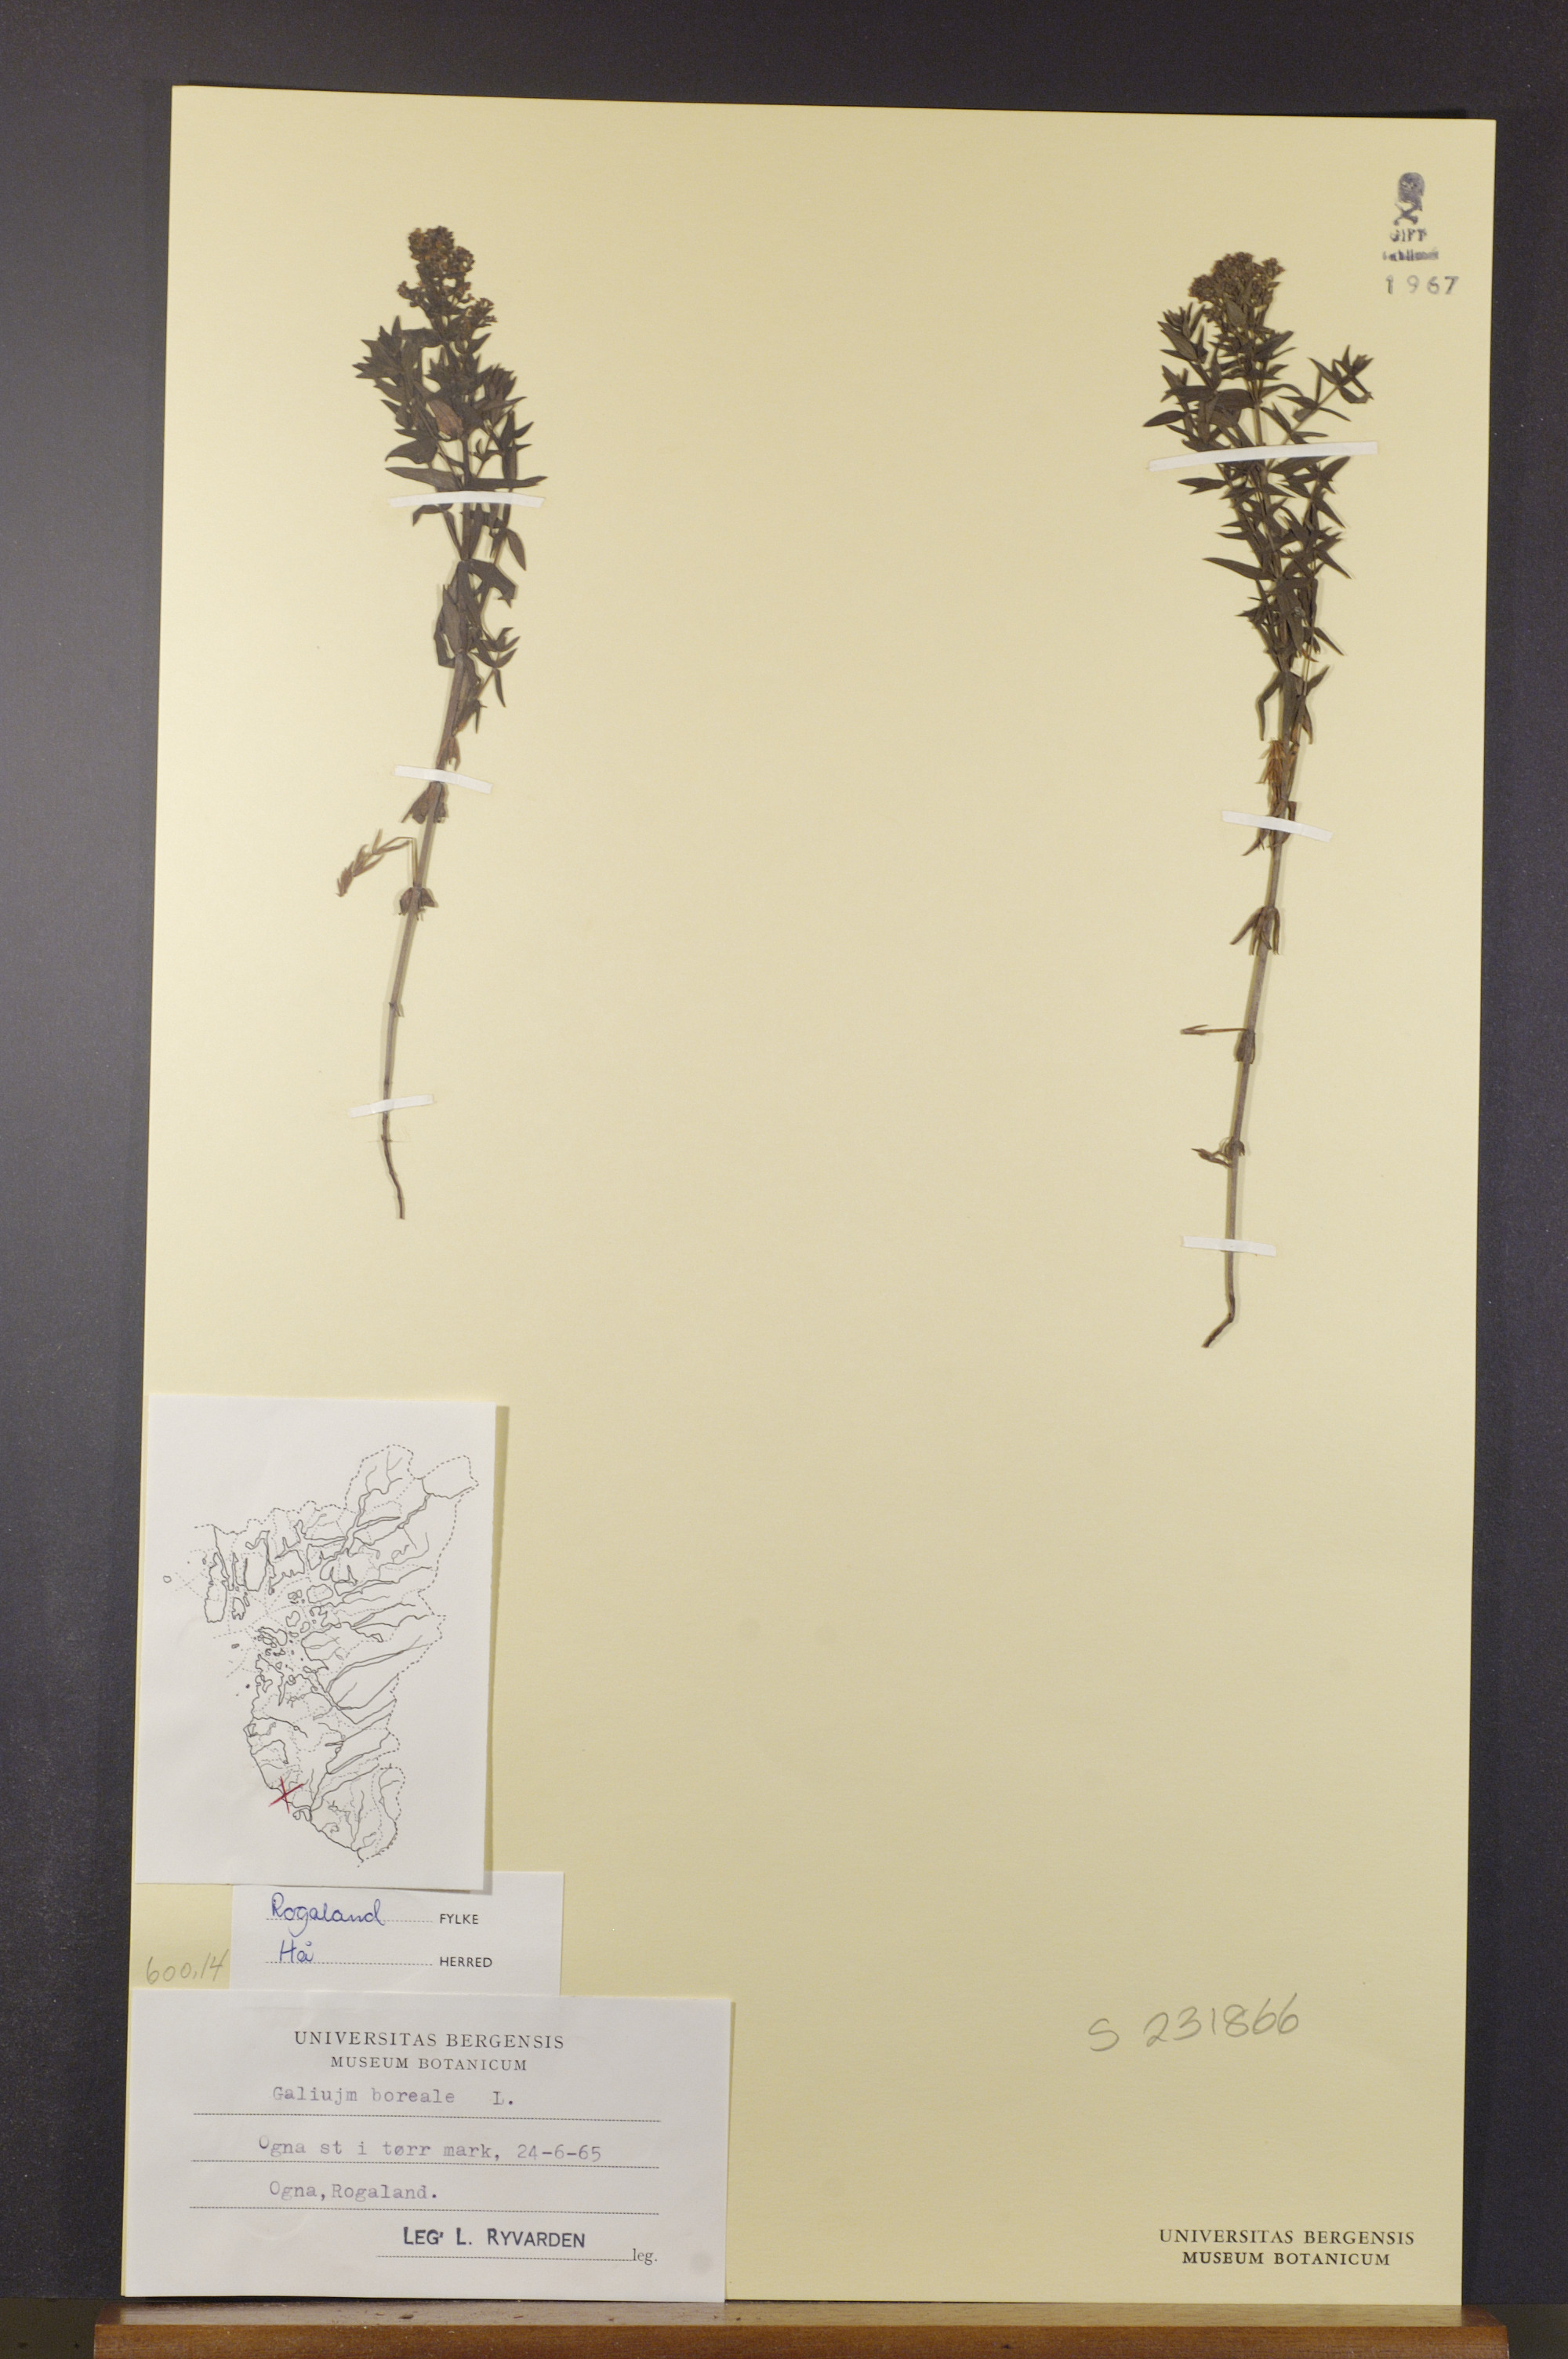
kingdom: Plantae
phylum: Tracheophyta
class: Magnoliopsida
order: Gentianales
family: Rubiaceae
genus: Galium
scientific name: Galium boreale
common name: Northern bedstraw
